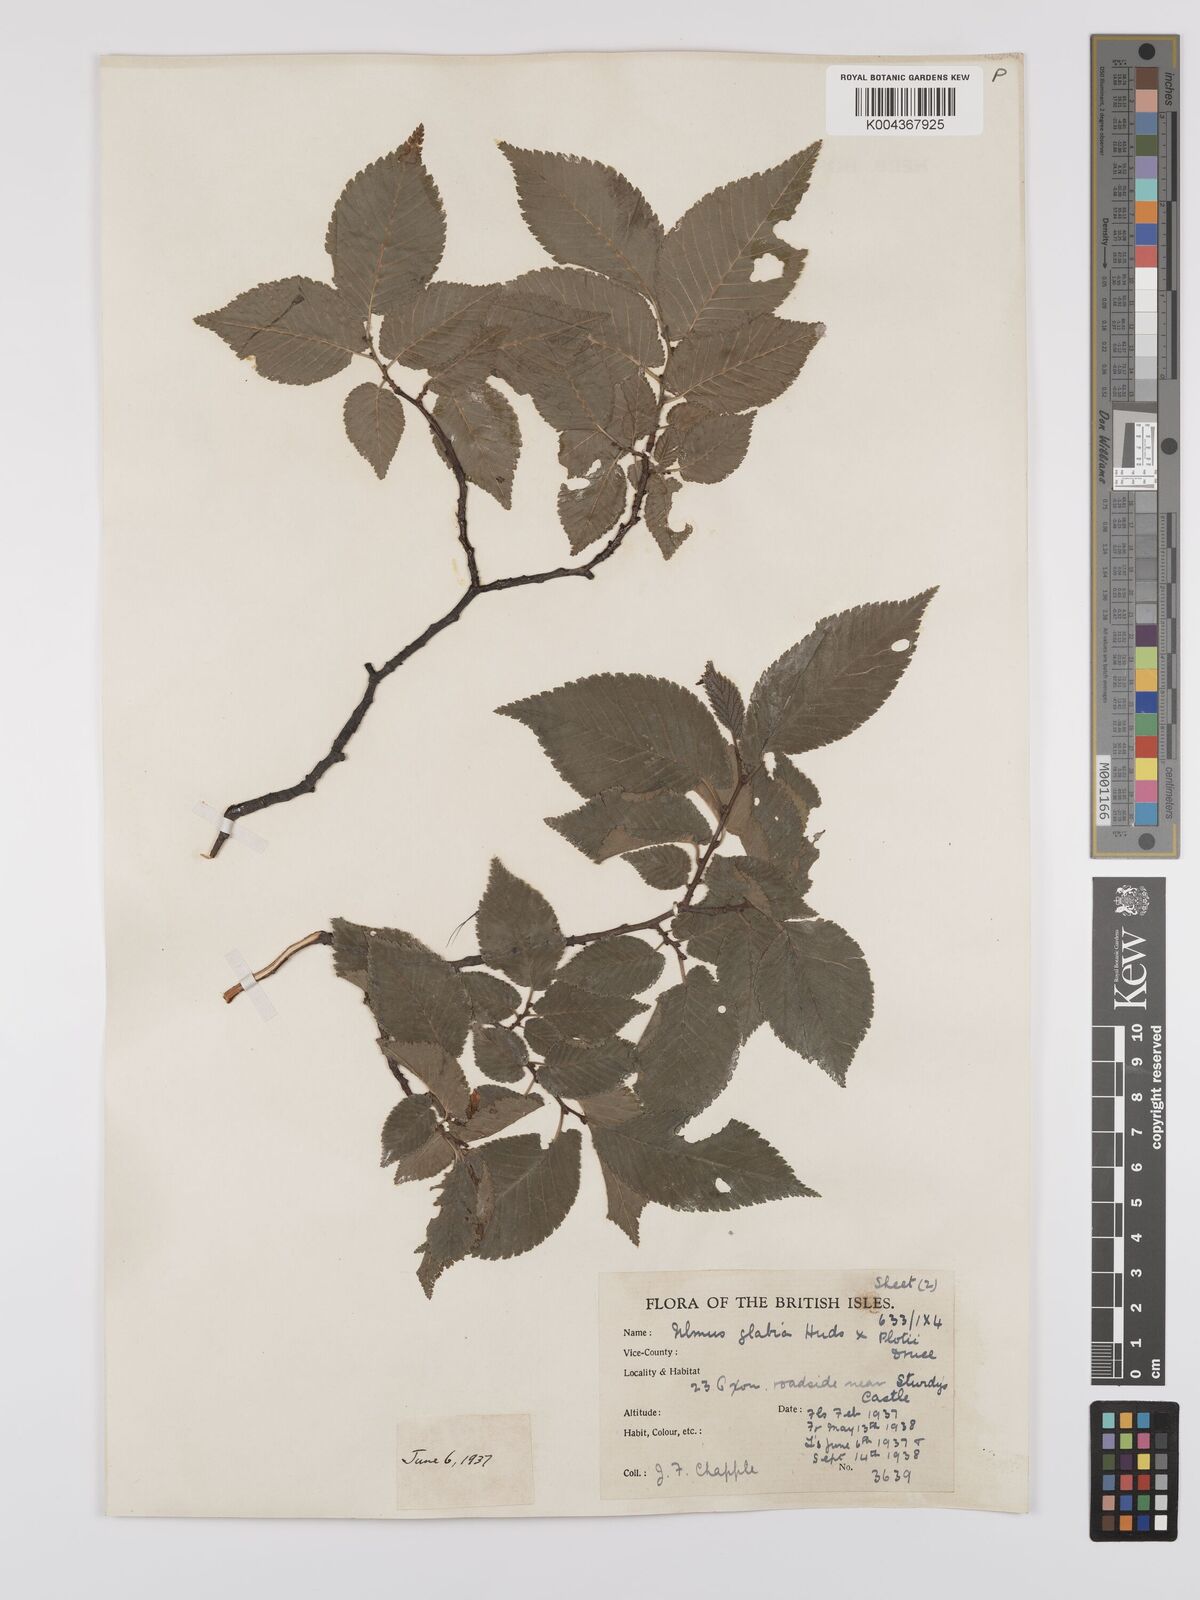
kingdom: Plantae
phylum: Tracheophyta
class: Magnoliopsida
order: Rosales
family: Ulmaceae
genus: Ulmus
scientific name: Ulmus
